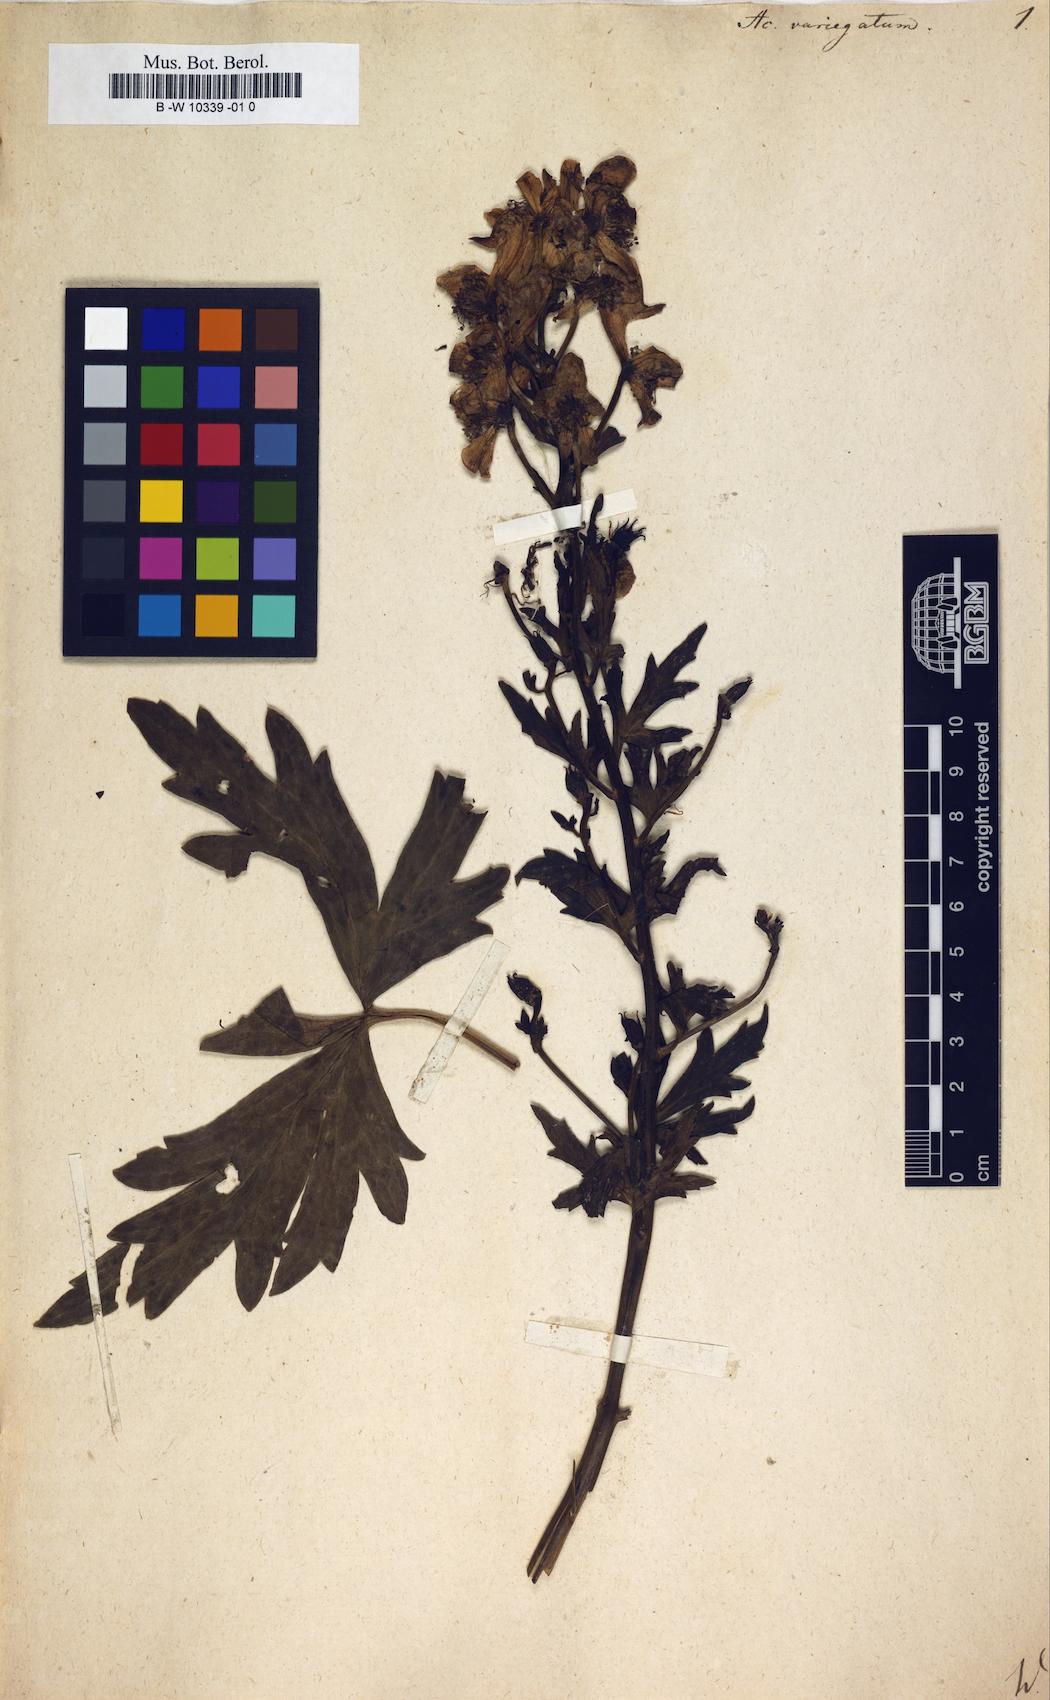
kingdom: Plantae
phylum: Tracheophyta
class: Magnoliopsida
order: Ranunculales
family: Ranunculaceae
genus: Aconitum
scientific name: Aconitum variegatum
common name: Manchurian monkshood
